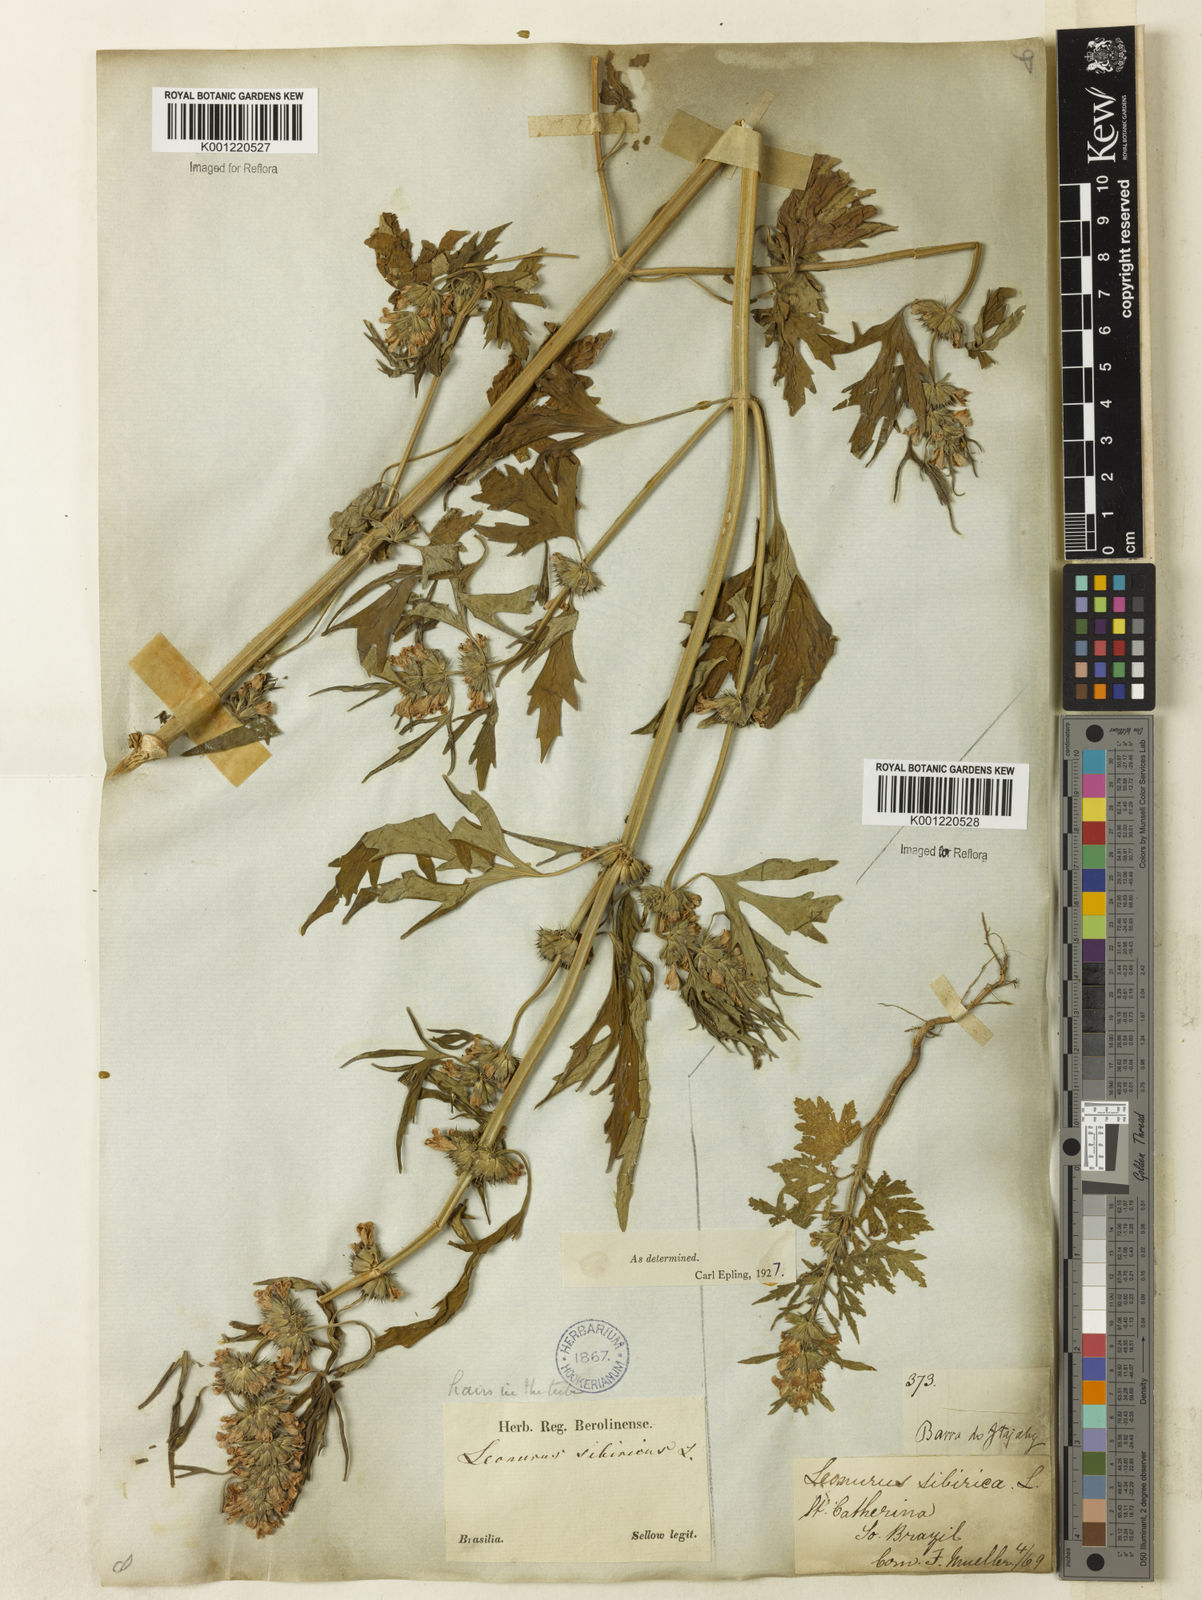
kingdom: Plantae
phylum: Tracheophyta
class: Magnoliopsida
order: Lamiales
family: Lamiaceae
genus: Leonurus
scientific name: Leonurus japonicus
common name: Honeyweed
